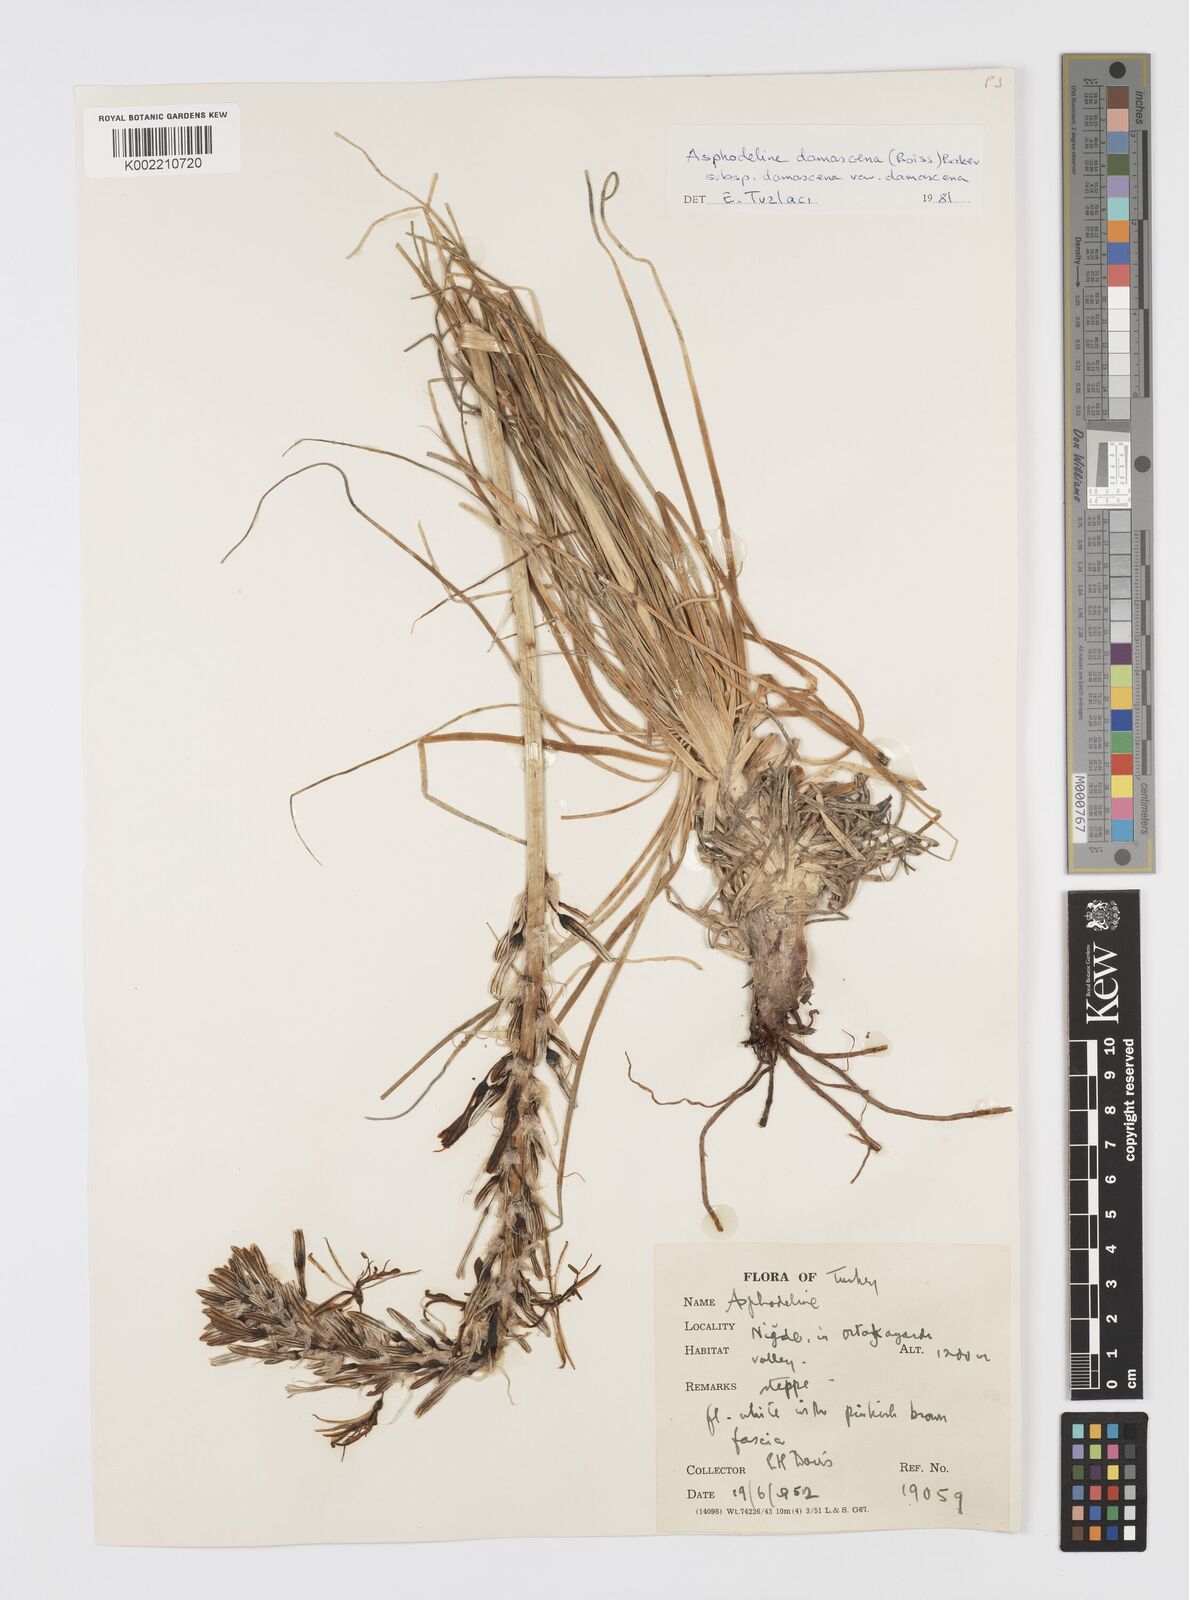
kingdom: Plantae
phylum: Tracheophyta
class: Liliopsida
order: Asparagales
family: Asphodelaceae
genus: Asphodeline
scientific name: Asphodeline damascena
